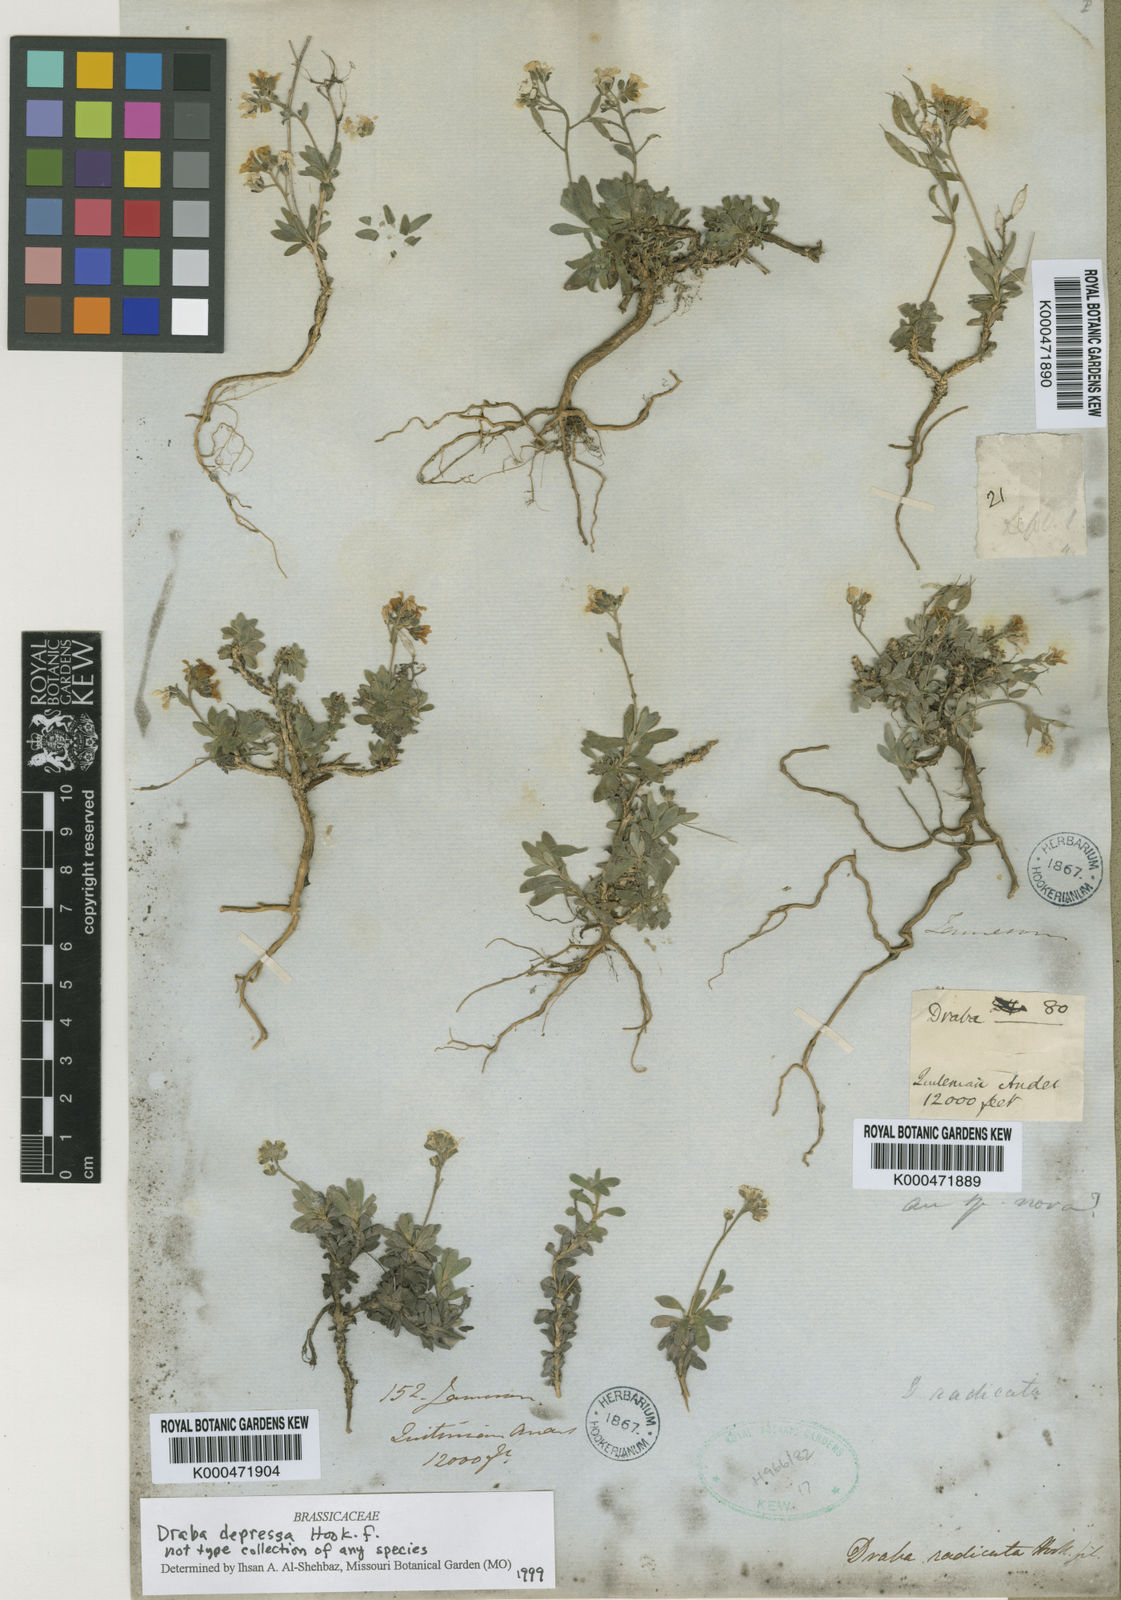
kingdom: Plantae
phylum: Tracheophyta
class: Magnoliopsida
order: Brassicales
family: Brassicaceae
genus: Draba
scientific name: Draba depressa
